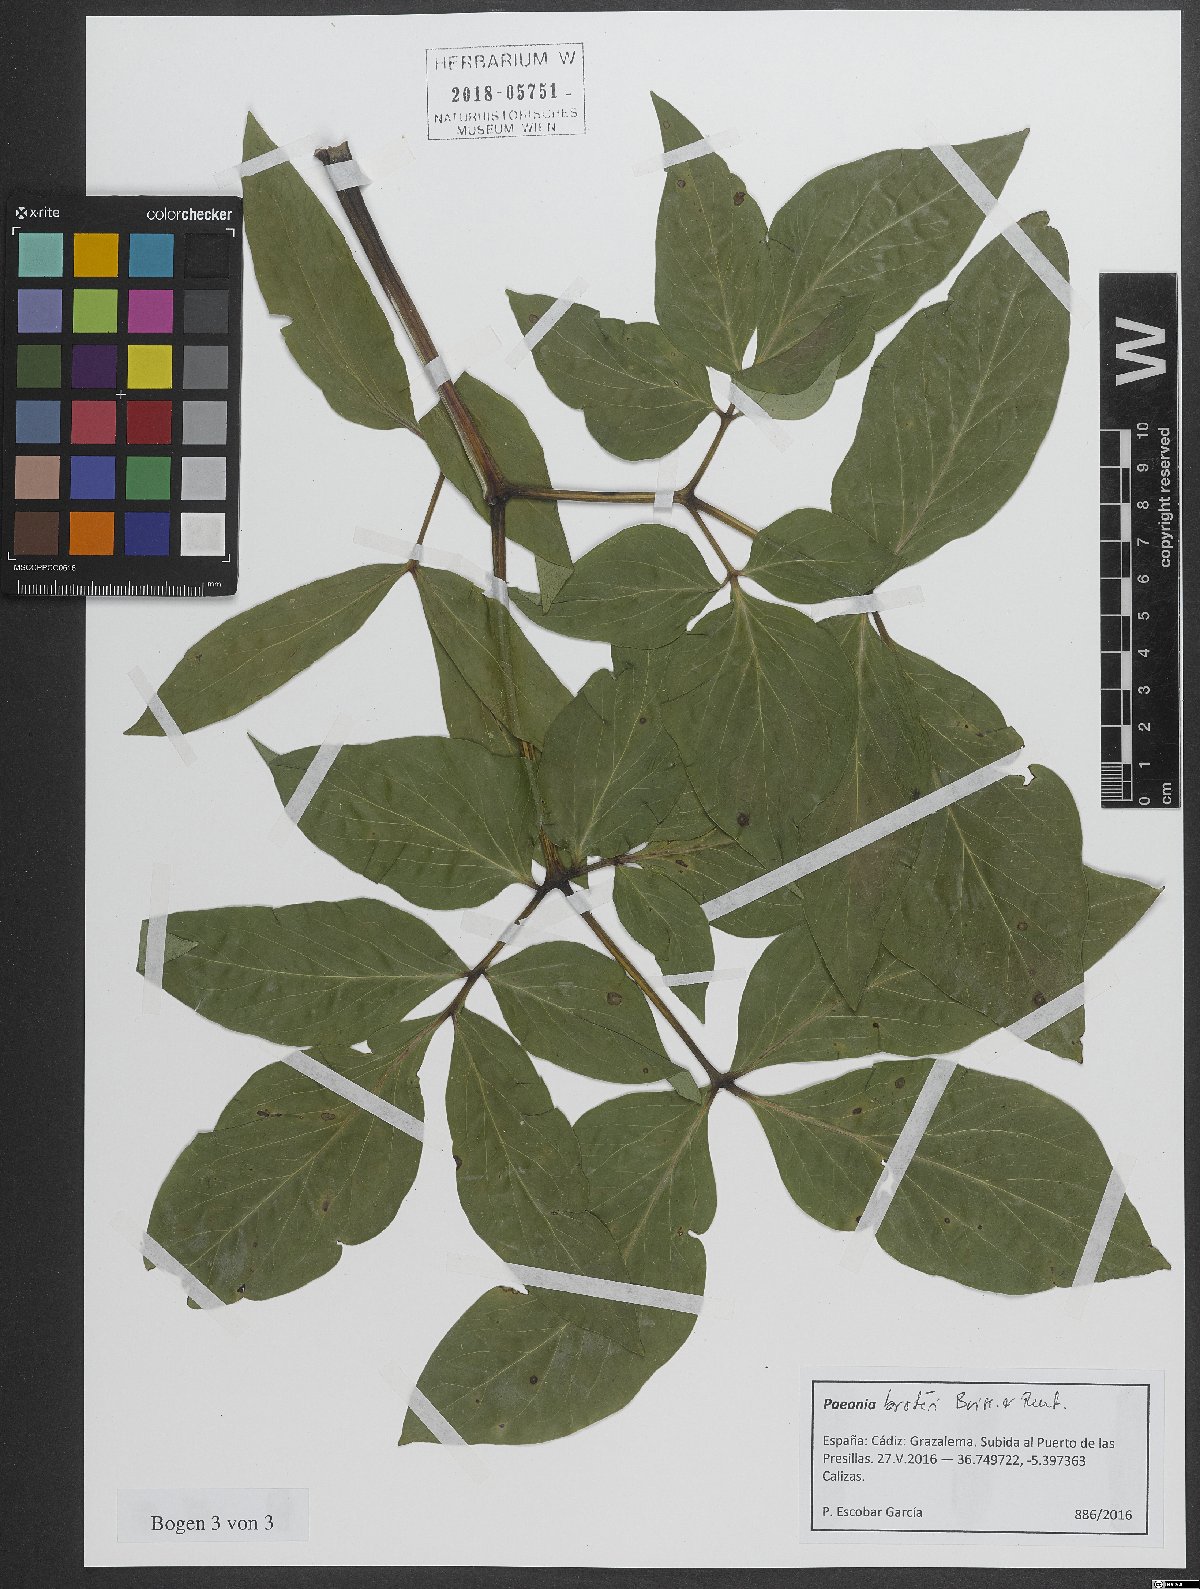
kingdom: Plantae
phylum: Tracheophyta
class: Magnoliopsida
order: Saxifragales
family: Paeoniaceae
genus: Paeonia
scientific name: Paeonia broteroi
